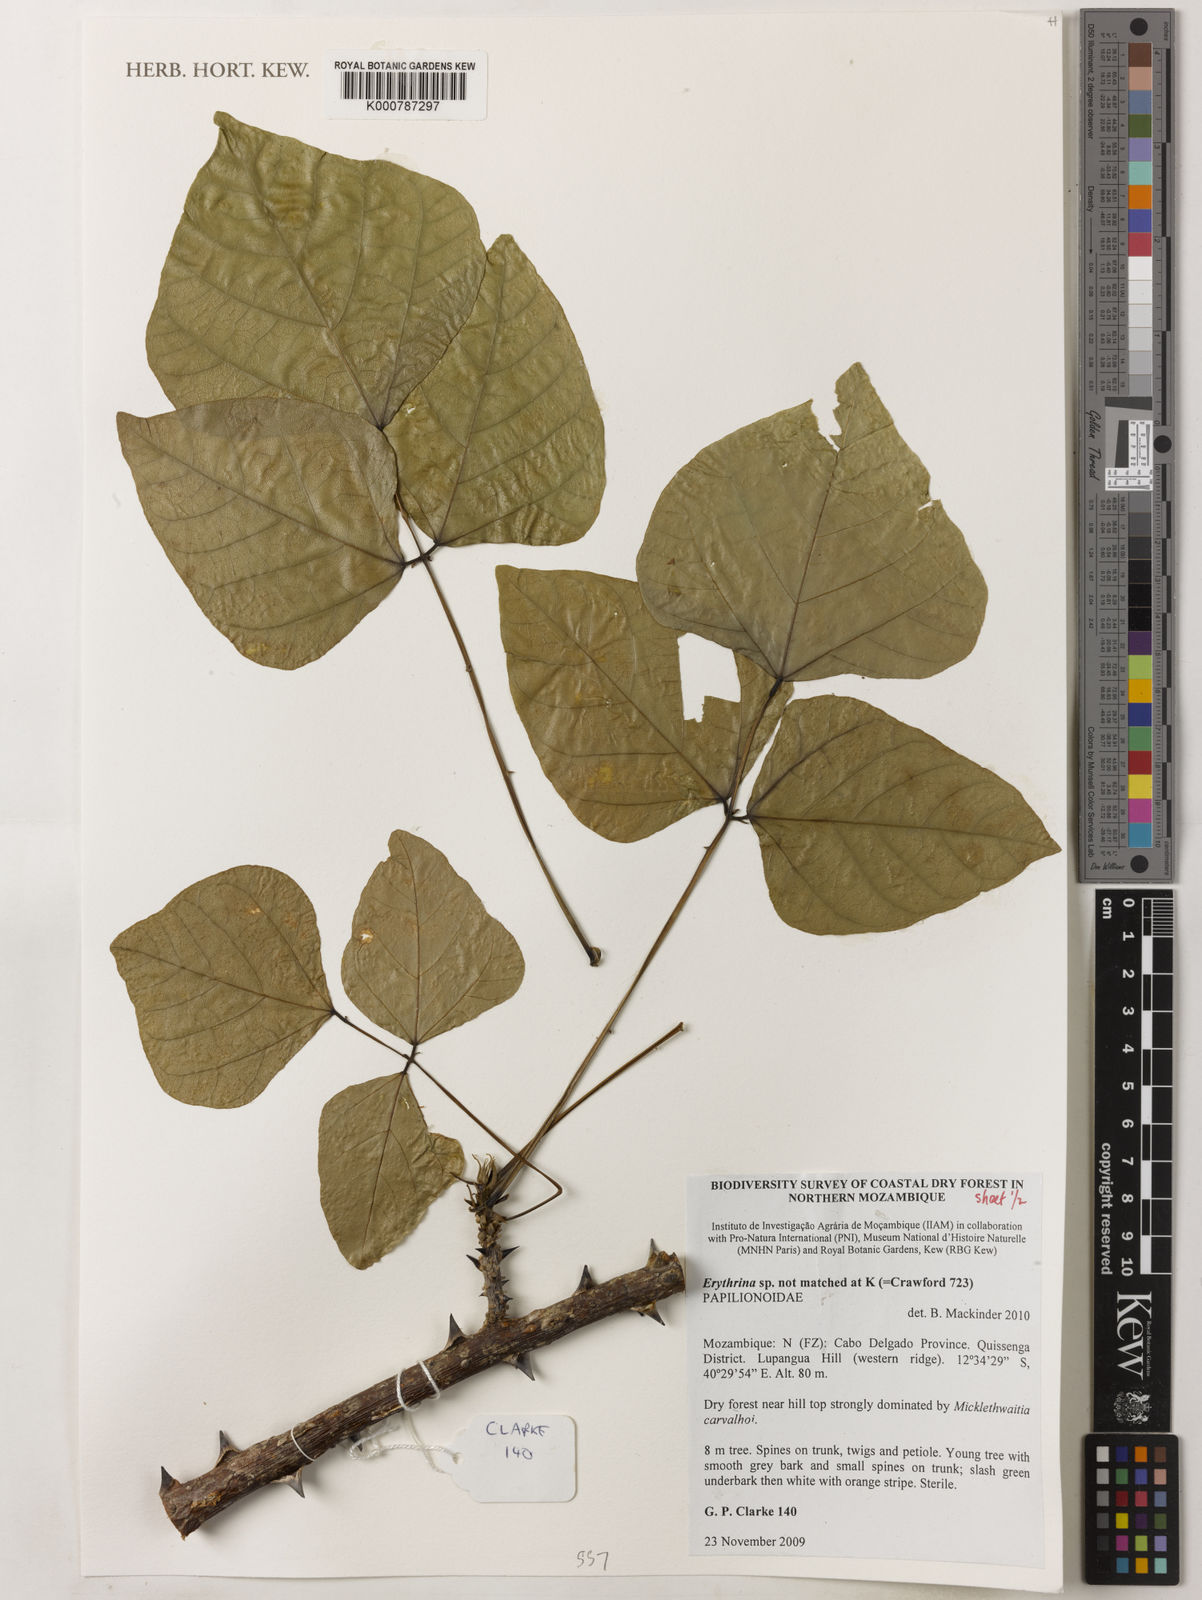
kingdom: Plantae
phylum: Tracheophyta
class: Magnoliopsida
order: Fabales
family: Fabaceae
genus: Erythrina
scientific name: Erythrina
